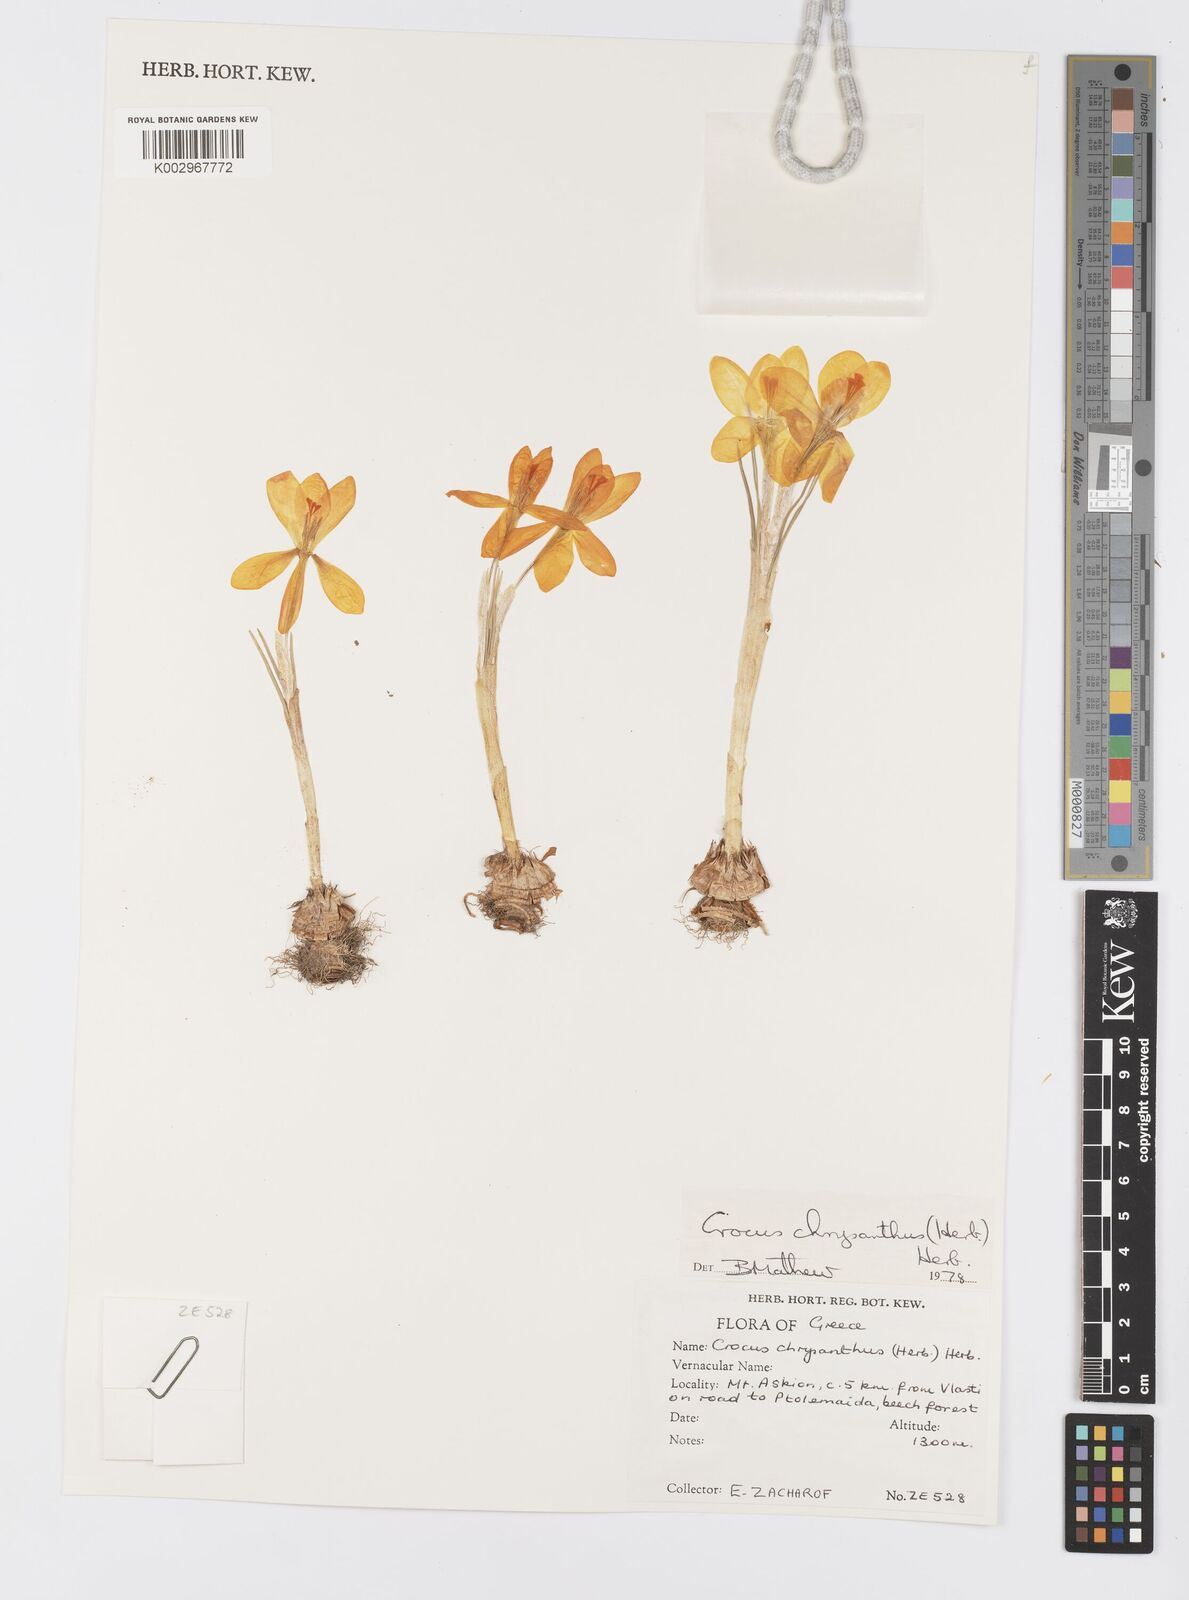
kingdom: Plantae
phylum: Tracheophyta
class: Liliopsida
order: Asparagales
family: Iridaceae
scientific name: Iridaceae
